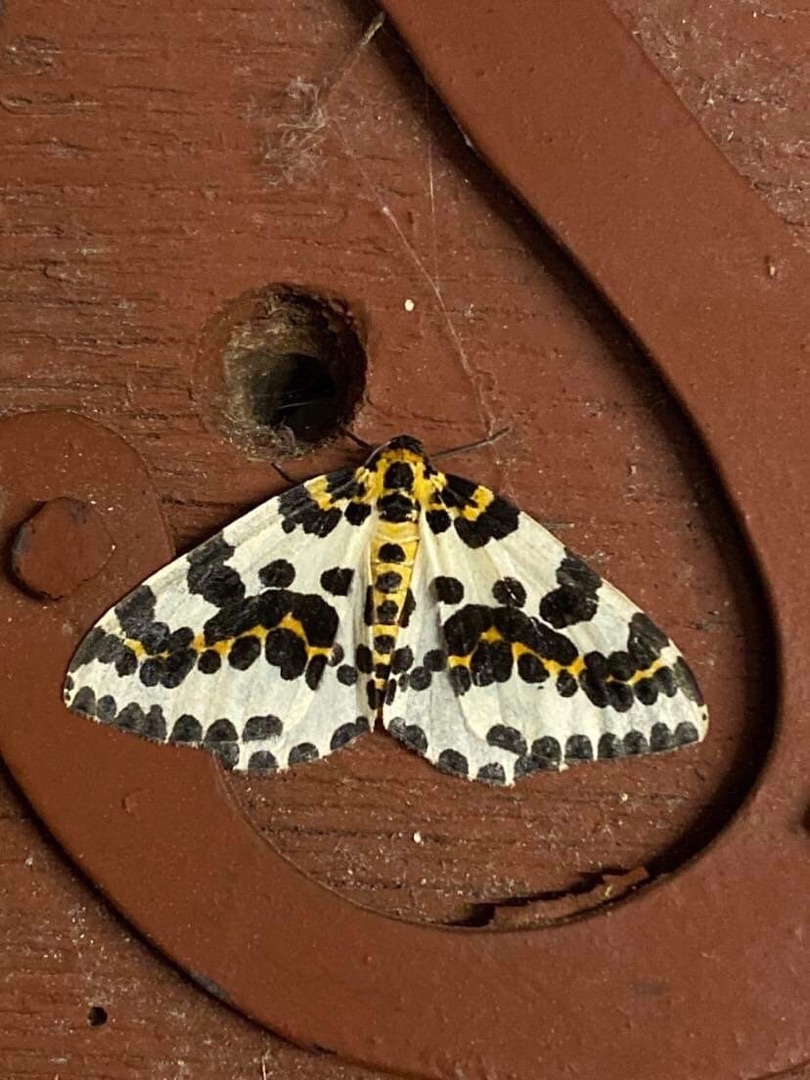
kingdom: Animalia
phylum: Arthropoda
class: Insecta
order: Lepidoptera
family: Geometridae
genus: Abraxas
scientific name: Abraxas grossulariata
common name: Harlekin
